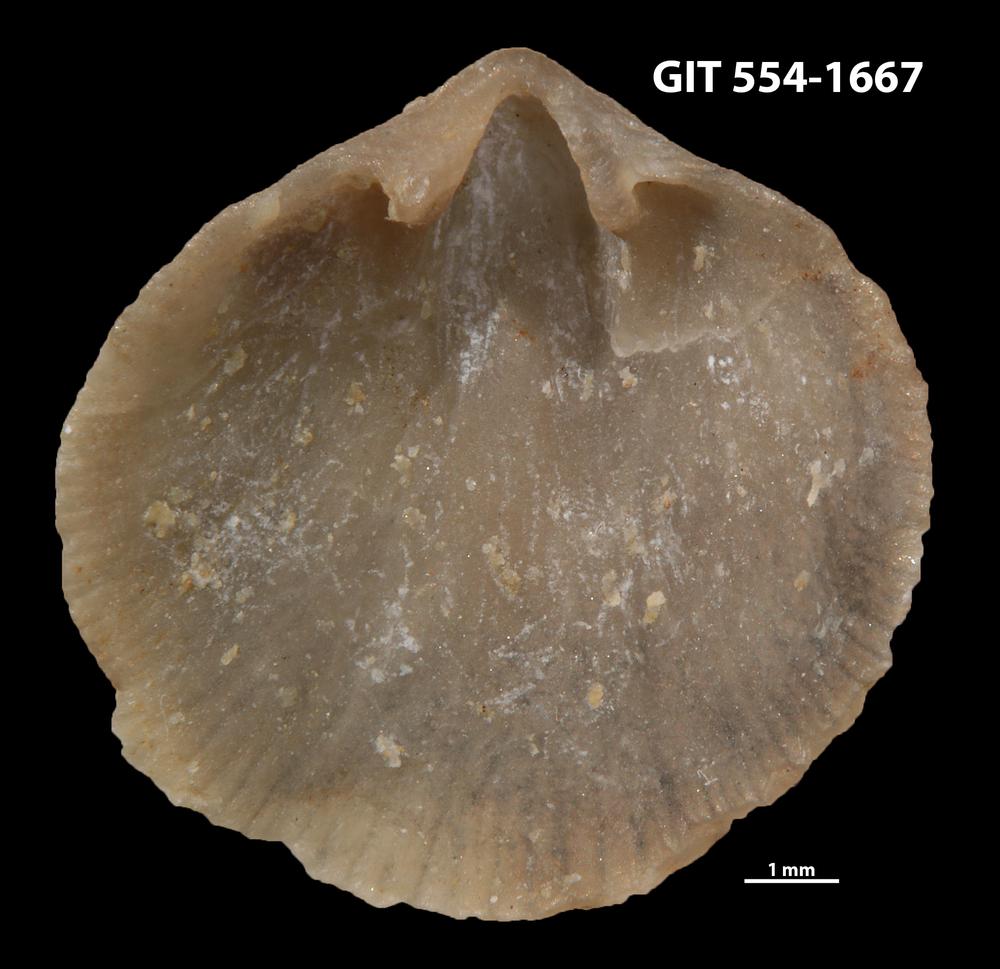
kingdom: Animalia
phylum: Brachiopoda
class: Rhynchonellata
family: Rhipidomellidae
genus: Mendacella
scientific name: Mendacella circularis
